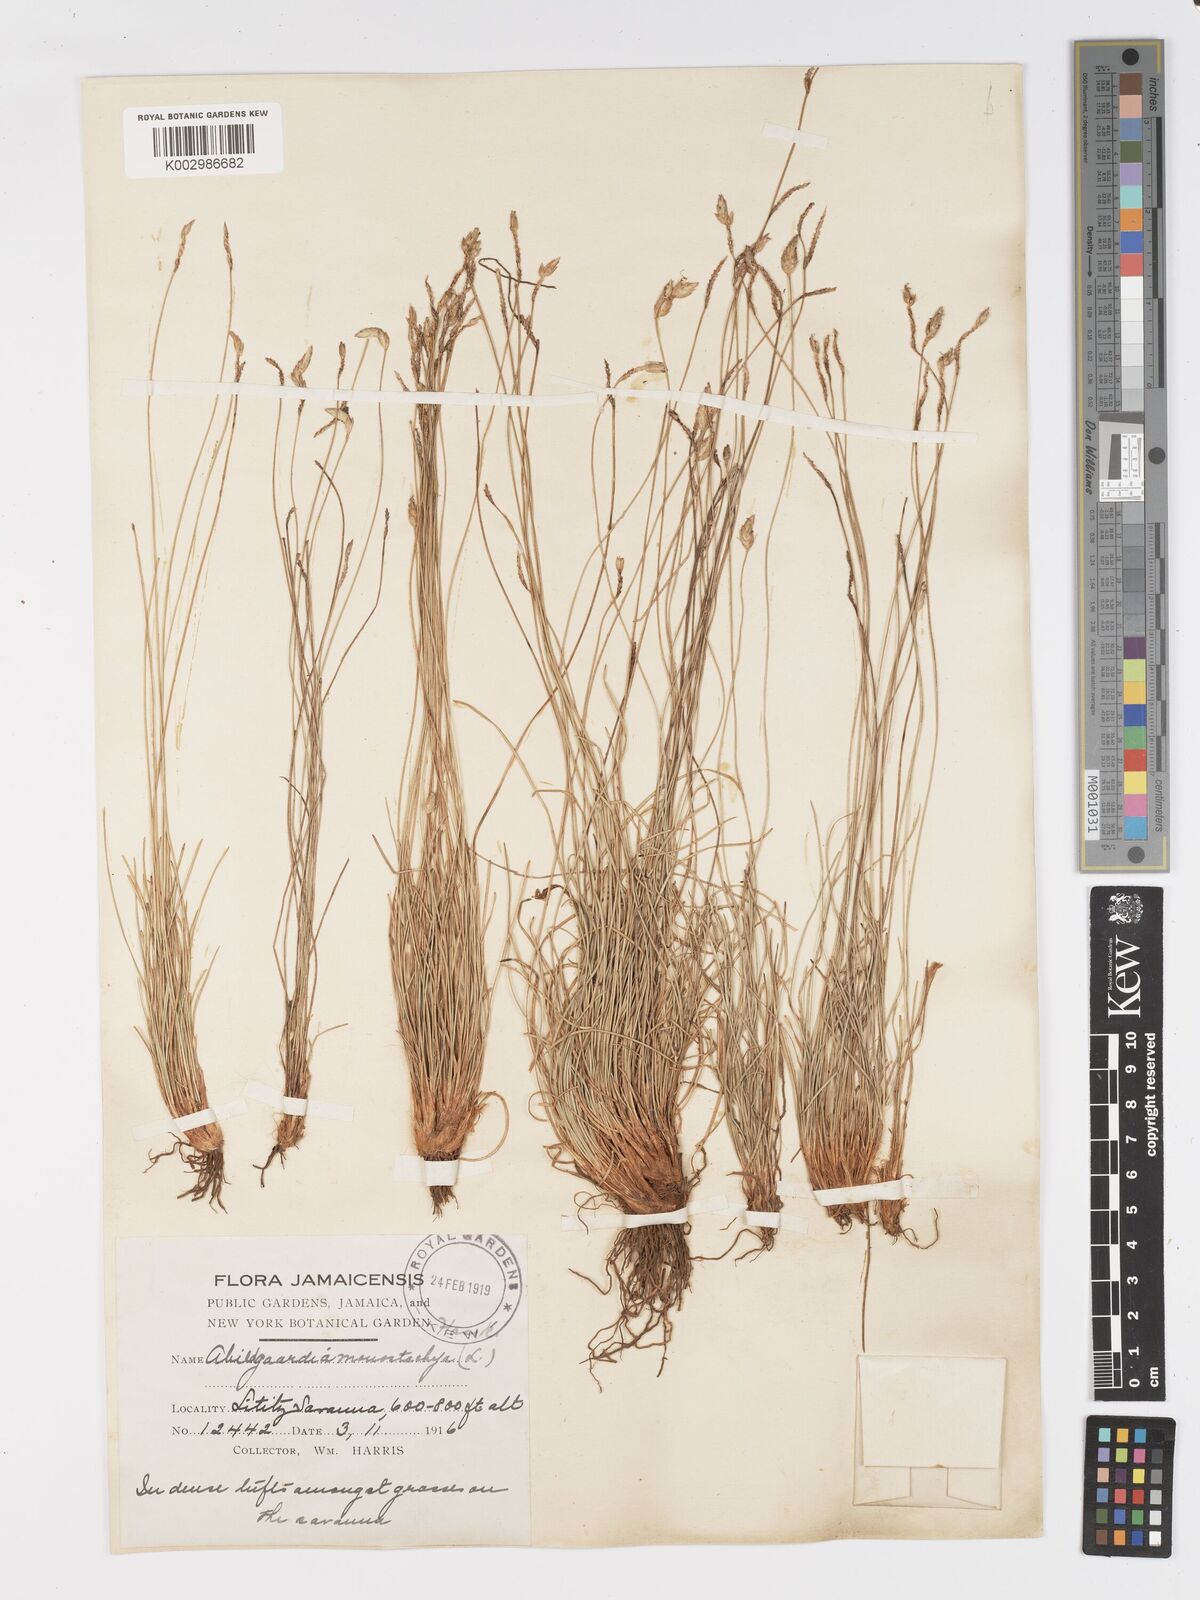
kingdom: Plantae
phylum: Tracheophyta
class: Liliopsida
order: Poales
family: Cyperaceae
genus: Abildgaardia
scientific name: Abildgaardia ovata
